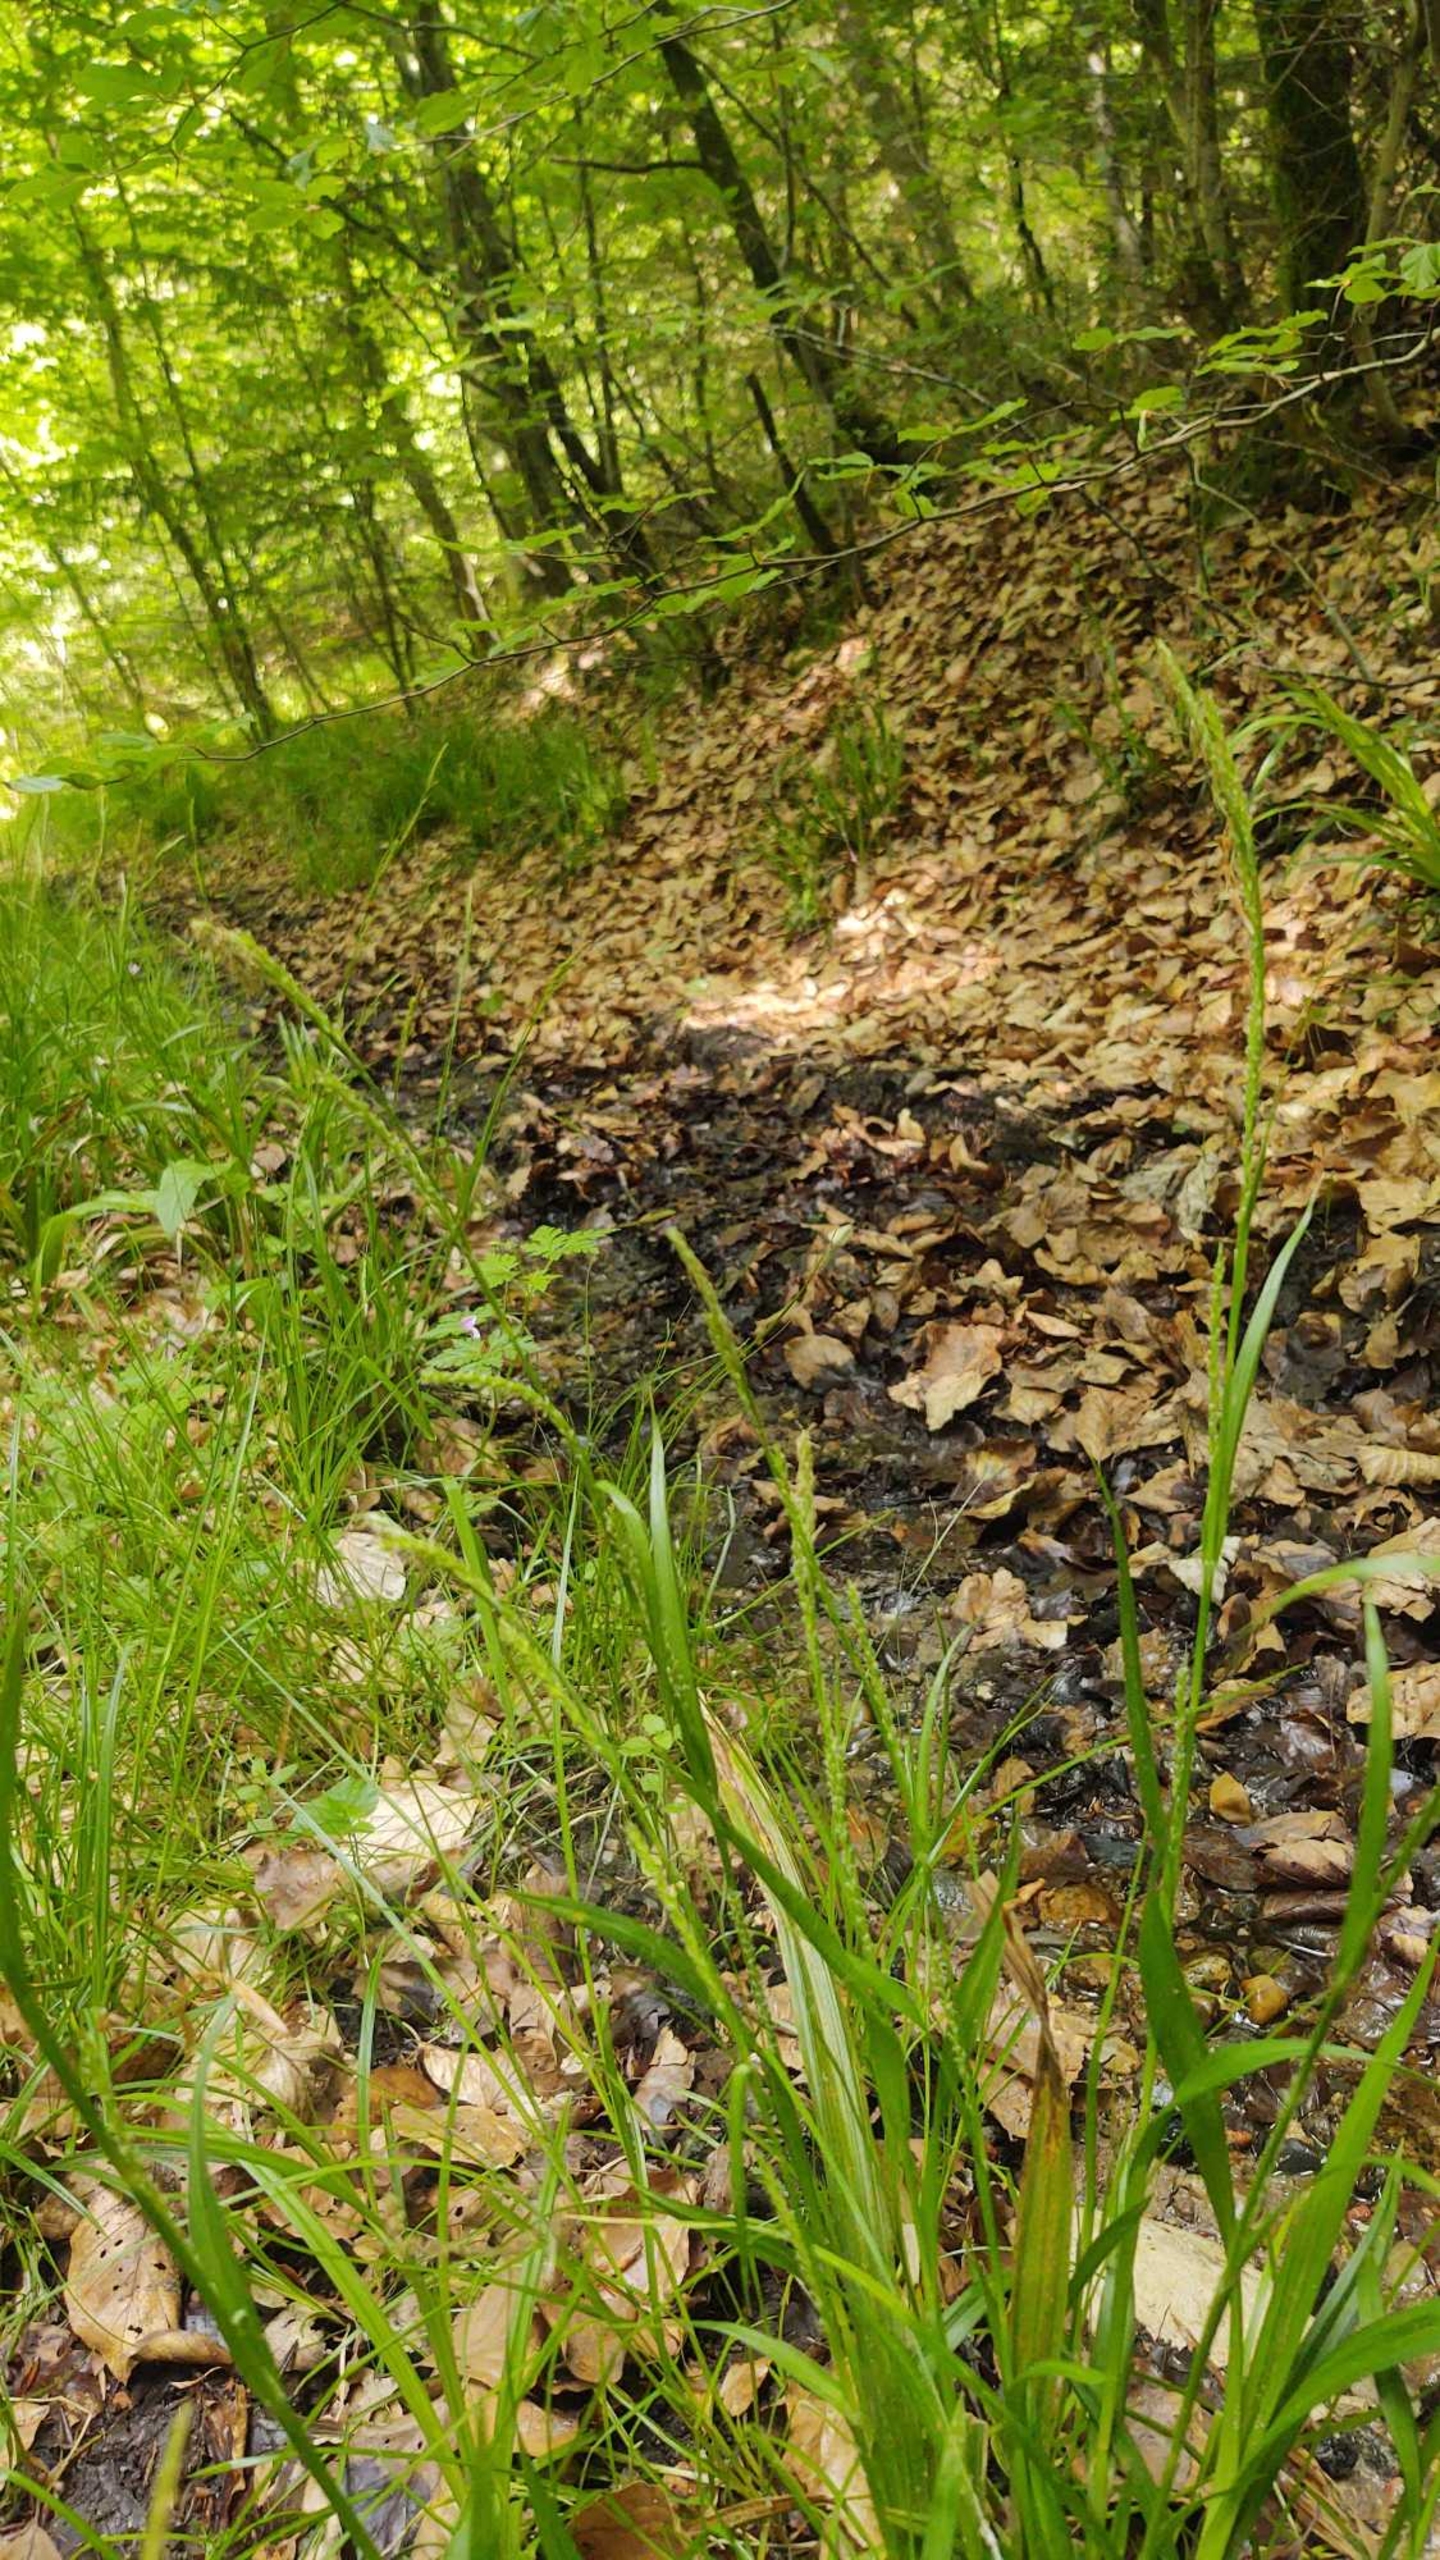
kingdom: Plantae
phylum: Tracheophyta
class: Liliopsida
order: Poales
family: Cyperaceae
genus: Carex
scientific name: Carex strigosa
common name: Tyndakset star
